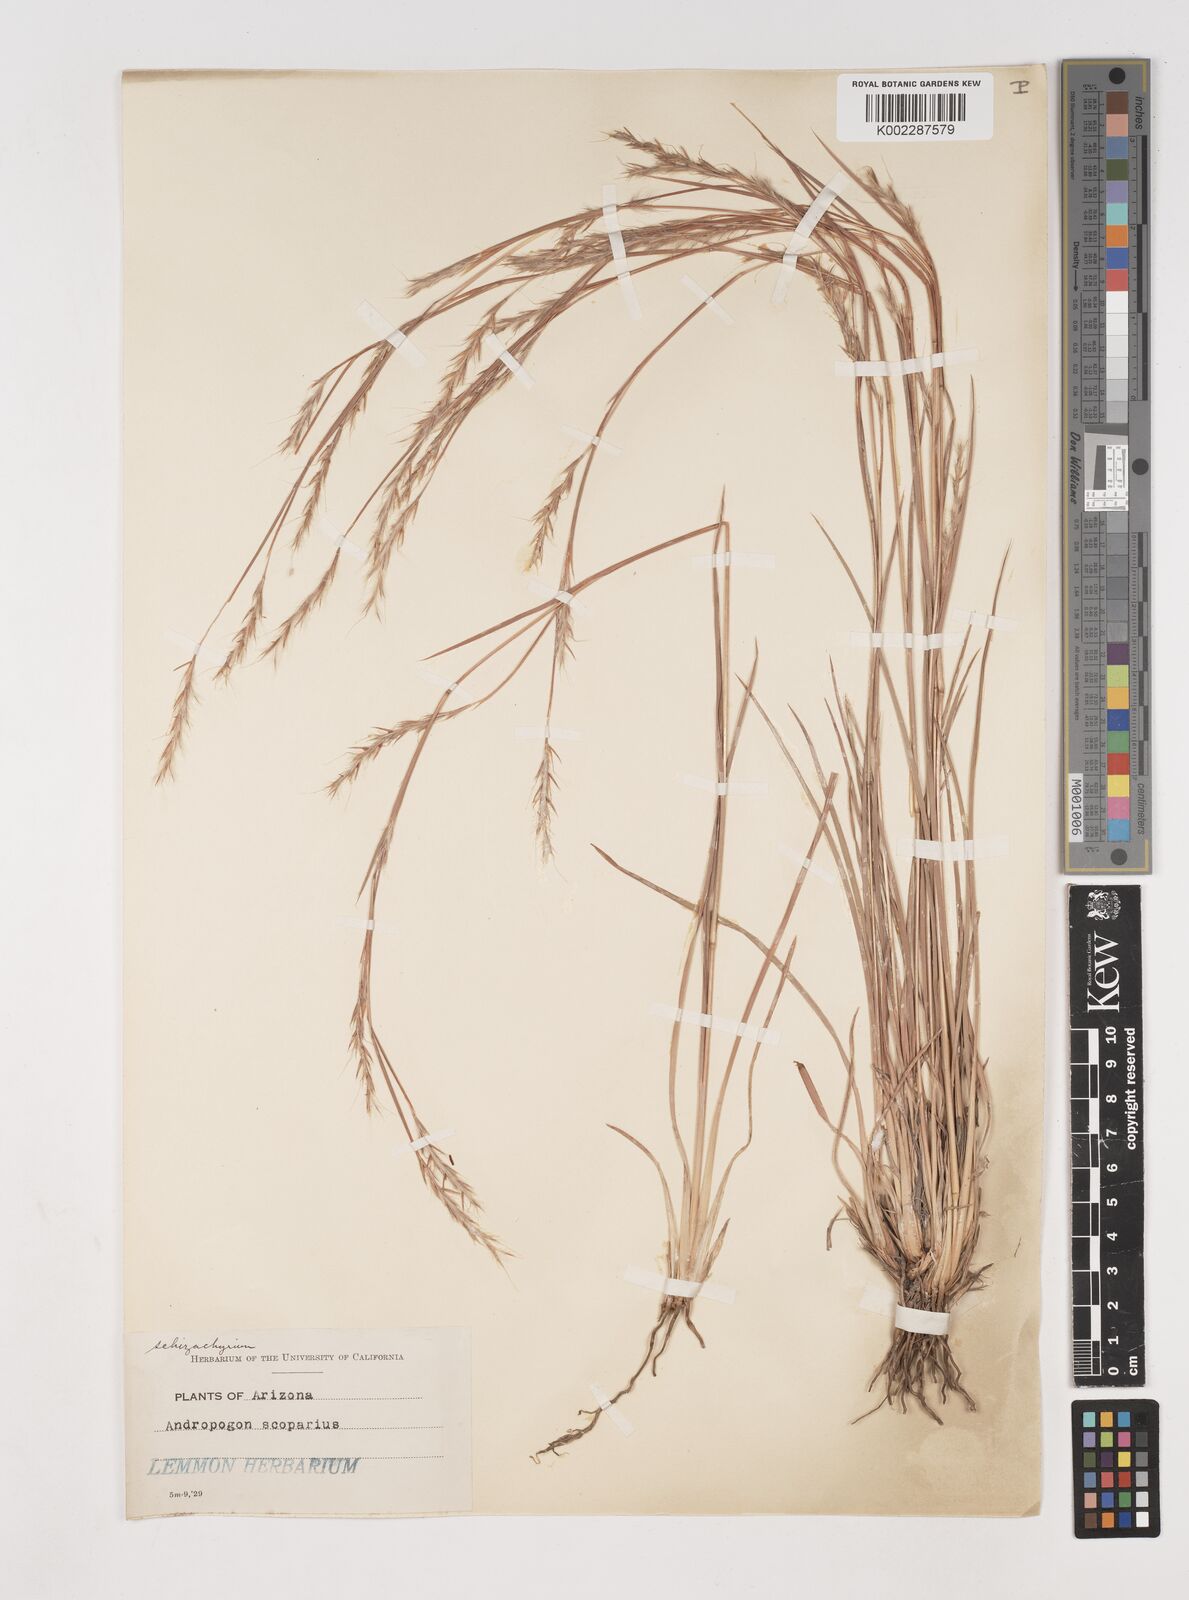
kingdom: Plantae
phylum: Tracheophyta
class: Liliopsida
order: Poales
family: Poaceae
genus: Schizachyrium
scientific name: Schizachyrium scoparium
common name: Little bluestem
